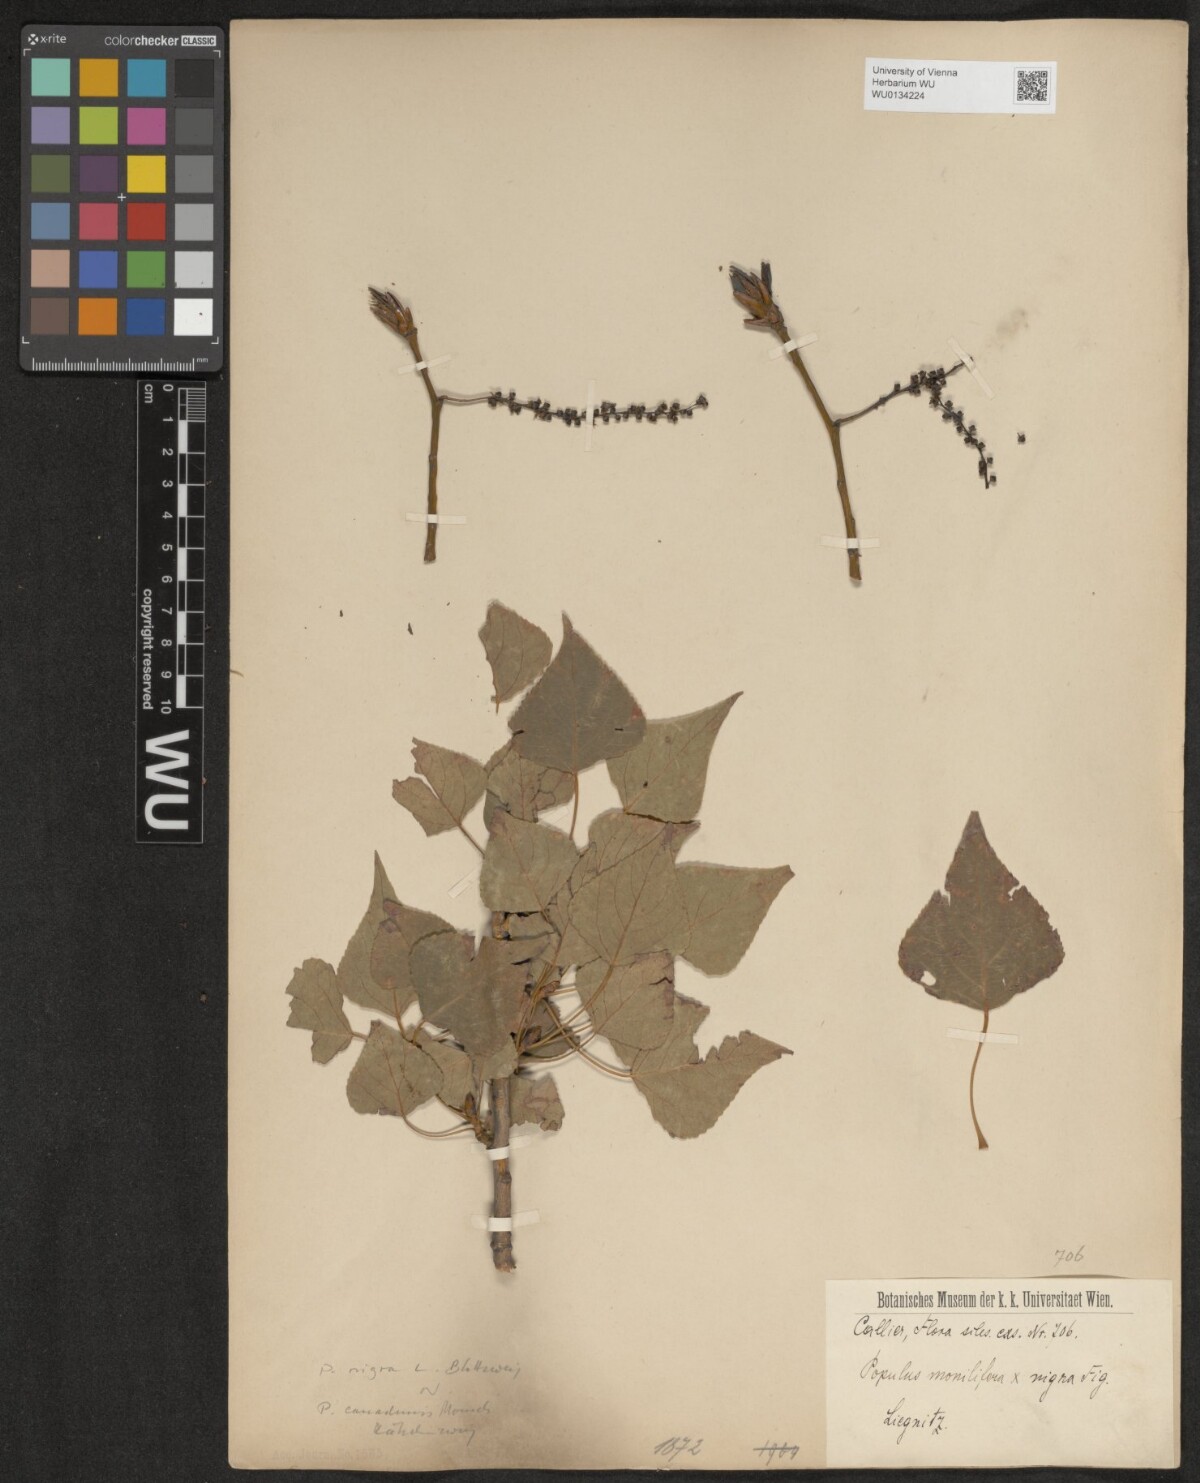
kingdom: Plantae
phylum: Tracheophyta
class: Magnoliopsida
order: Malpighiales
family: Salicaceae
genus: Populus
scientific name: Populus nigra
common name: Black poplar
